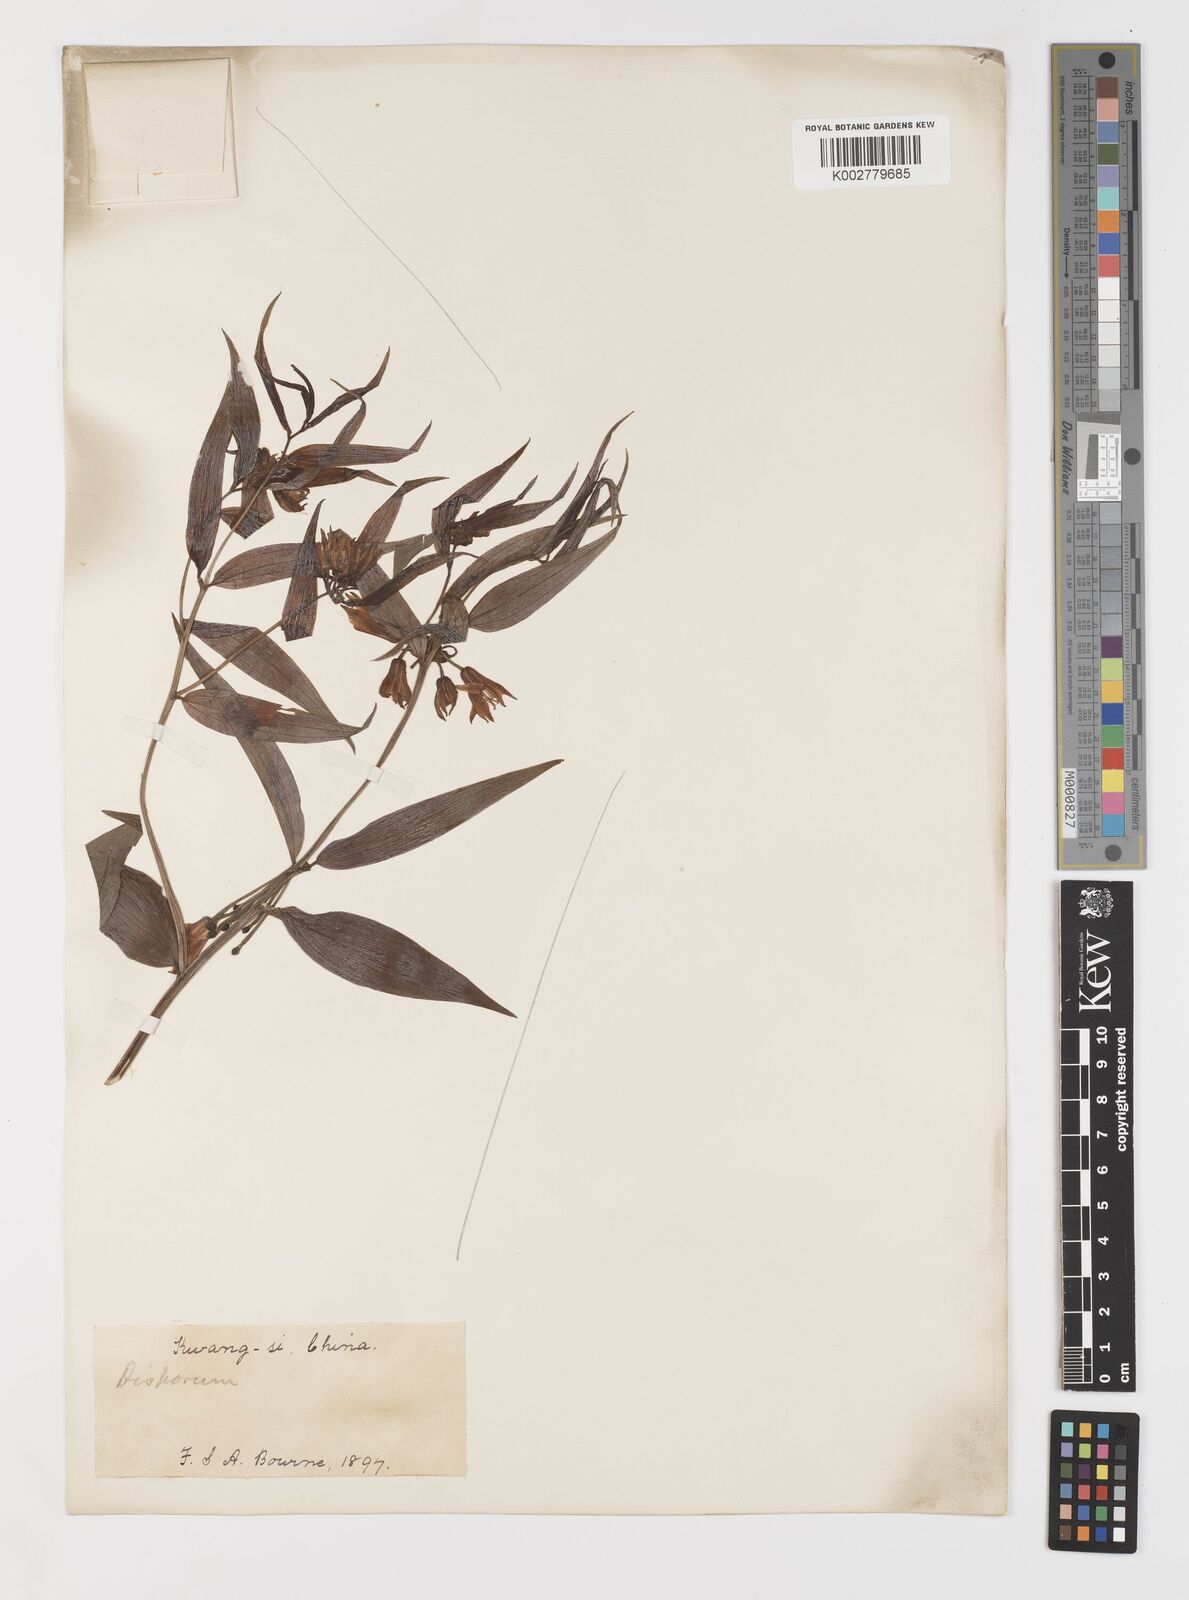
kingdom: Plantae
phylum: Tracheophyta
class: Liliopsida
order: Liliales
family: Colchicaceae
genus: Disporum
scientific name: Disporum cantoniense
